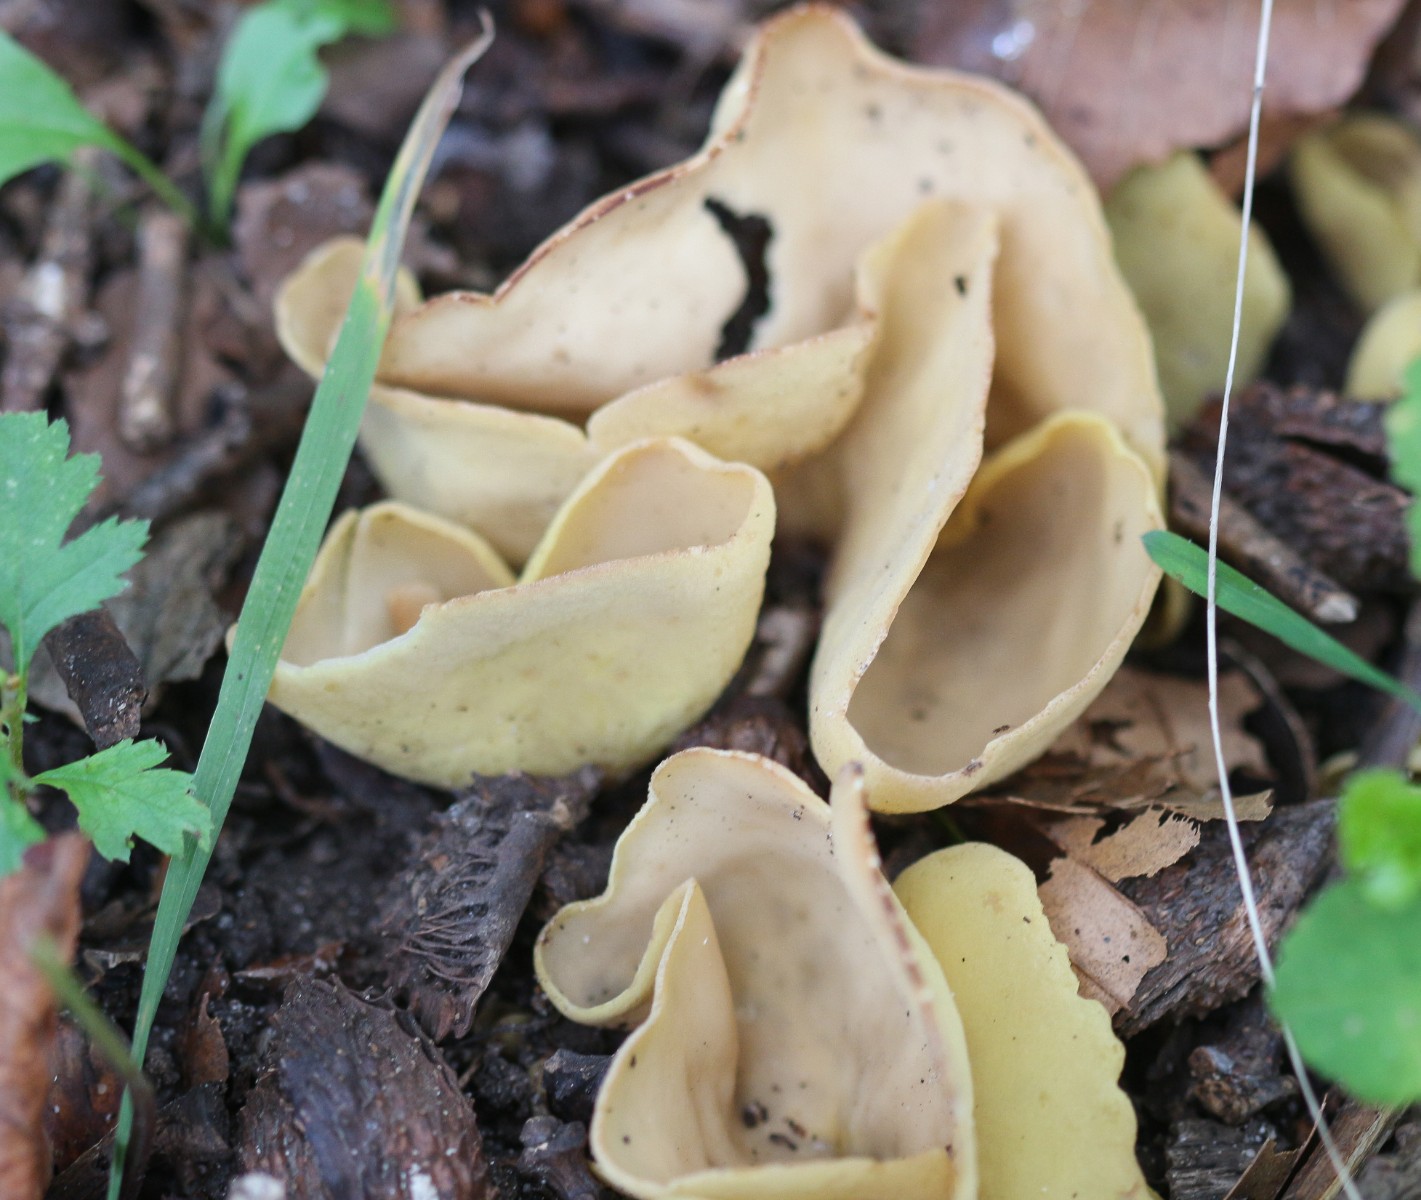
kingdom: Fungi
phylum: Ascomycota
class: Pezizomycetes
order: Pezizales
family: Otideaceae
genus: Otidea
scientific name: Otidea cantharella
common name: citrongul ørebæger
